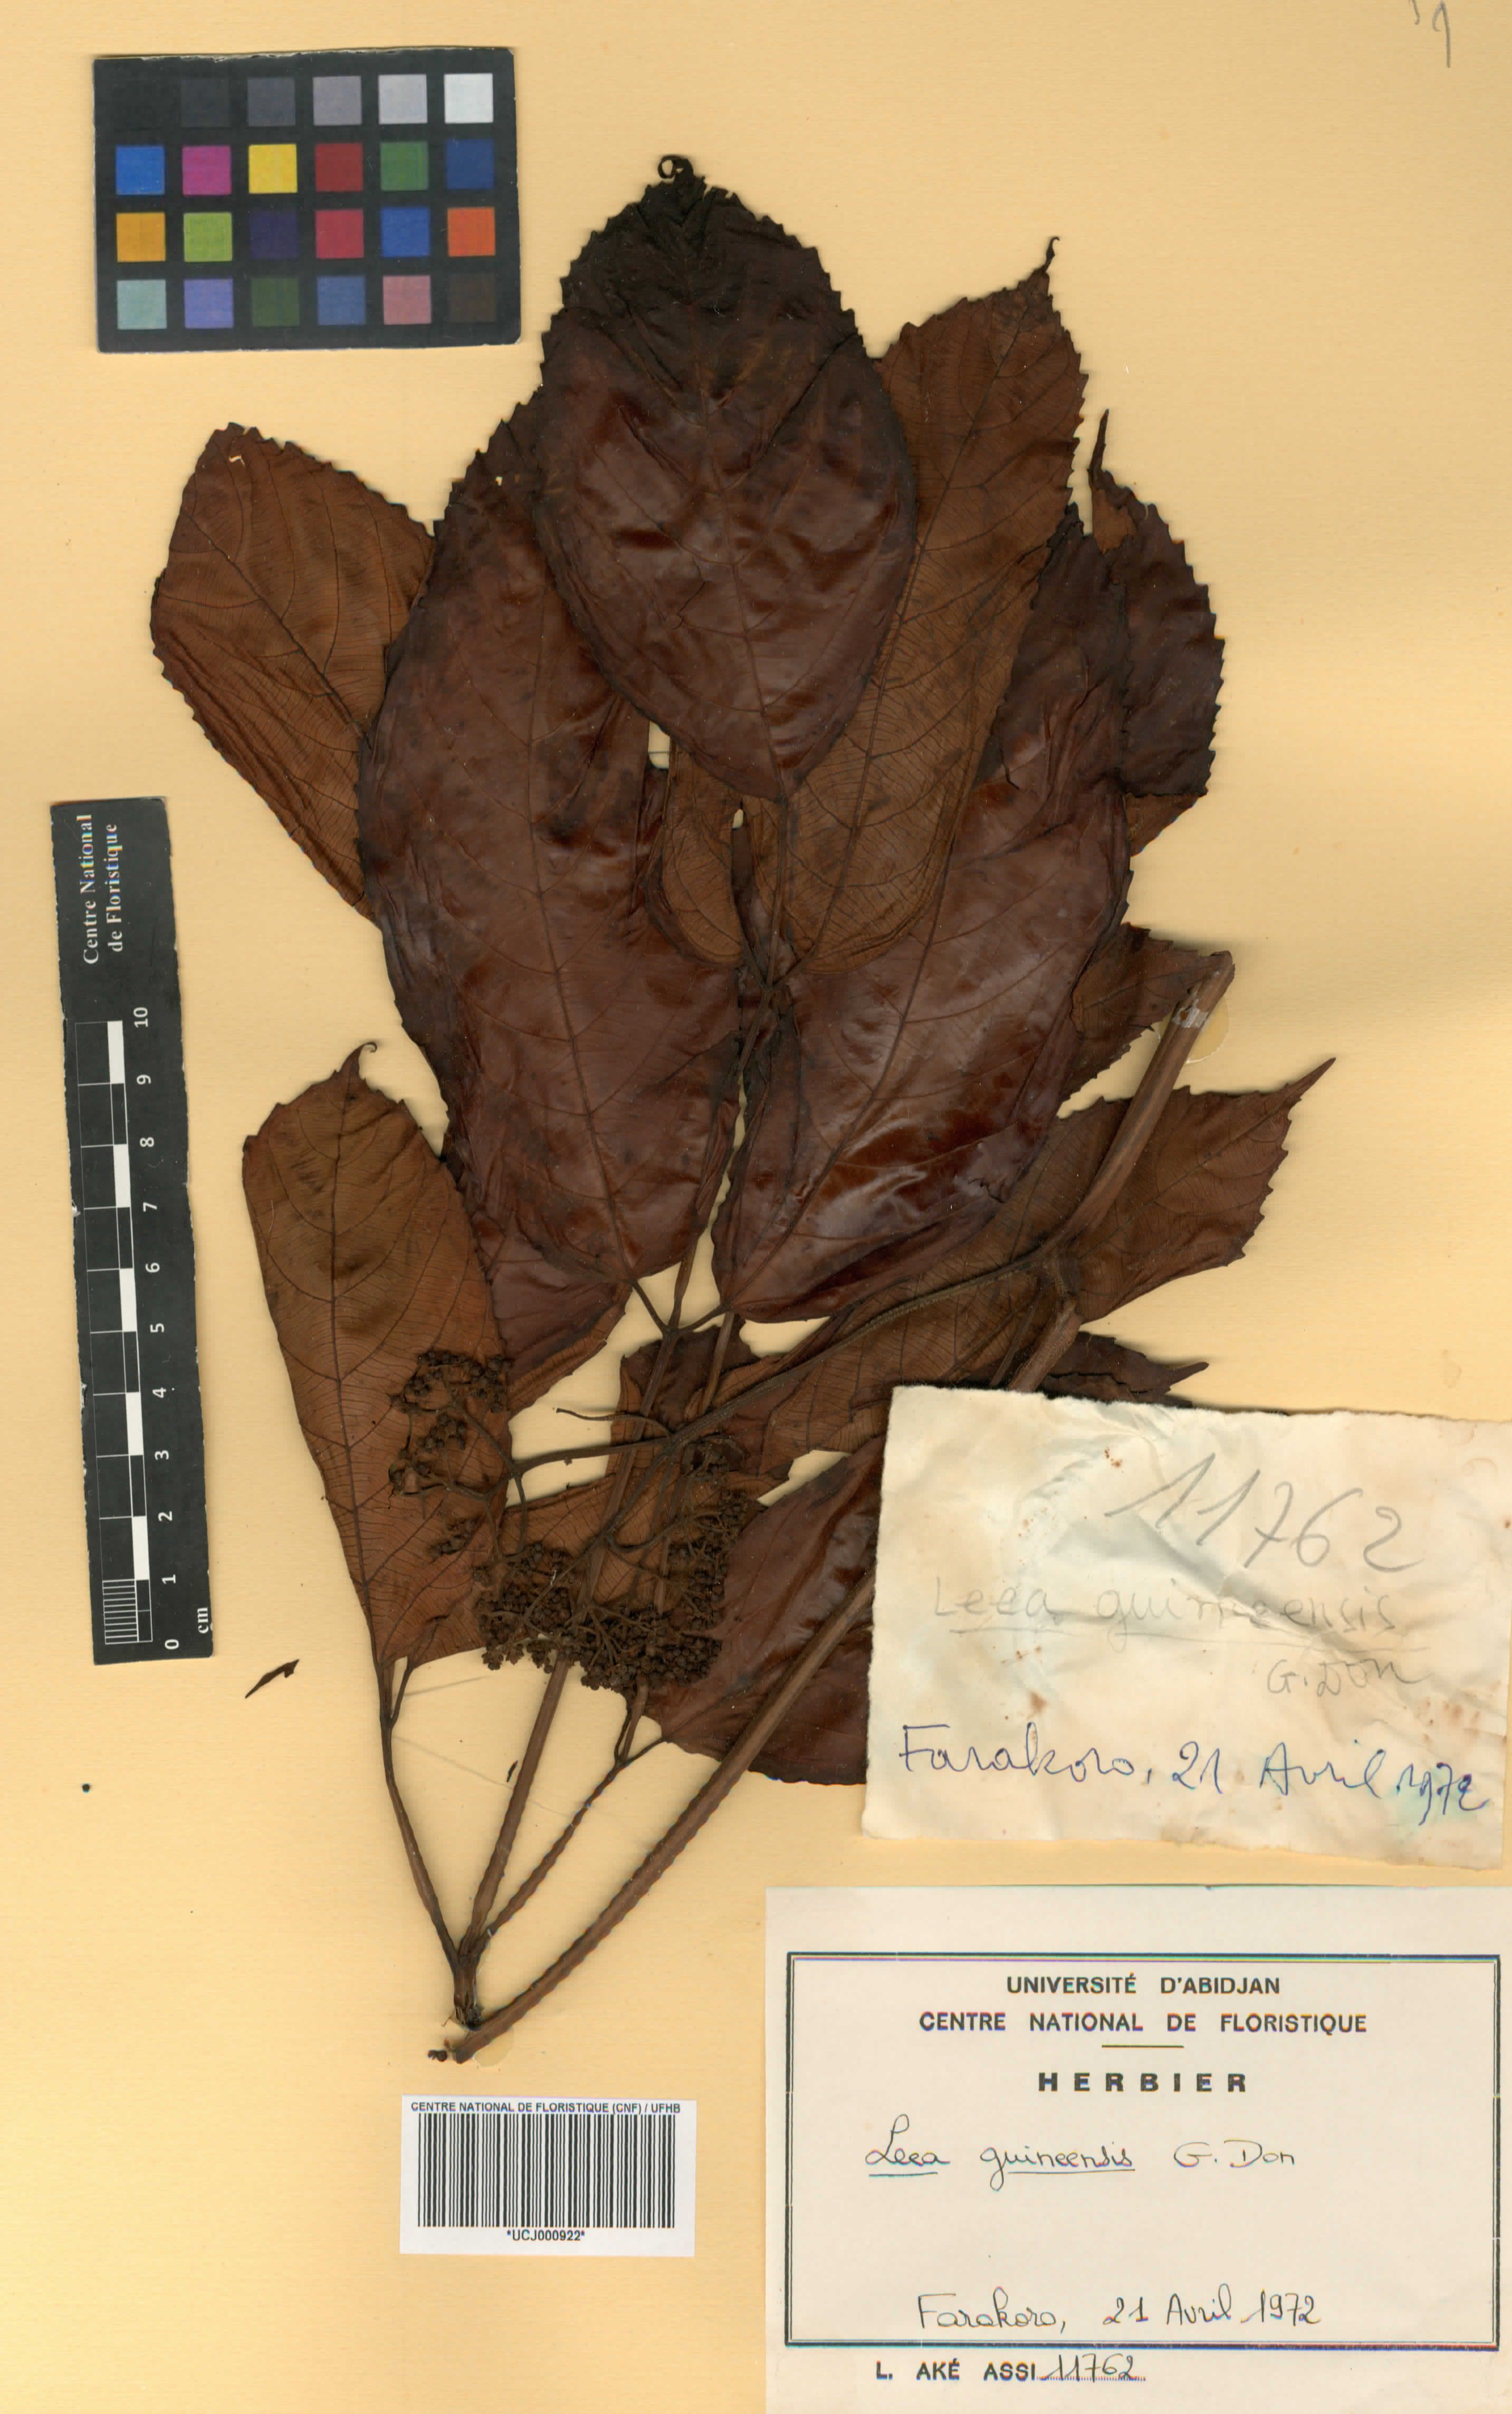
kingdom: Plantae
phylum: Tracheophyta
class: Magnoliopsida
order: Vitales
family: Vitaceae
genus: Leea
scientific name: Leea guineensis
